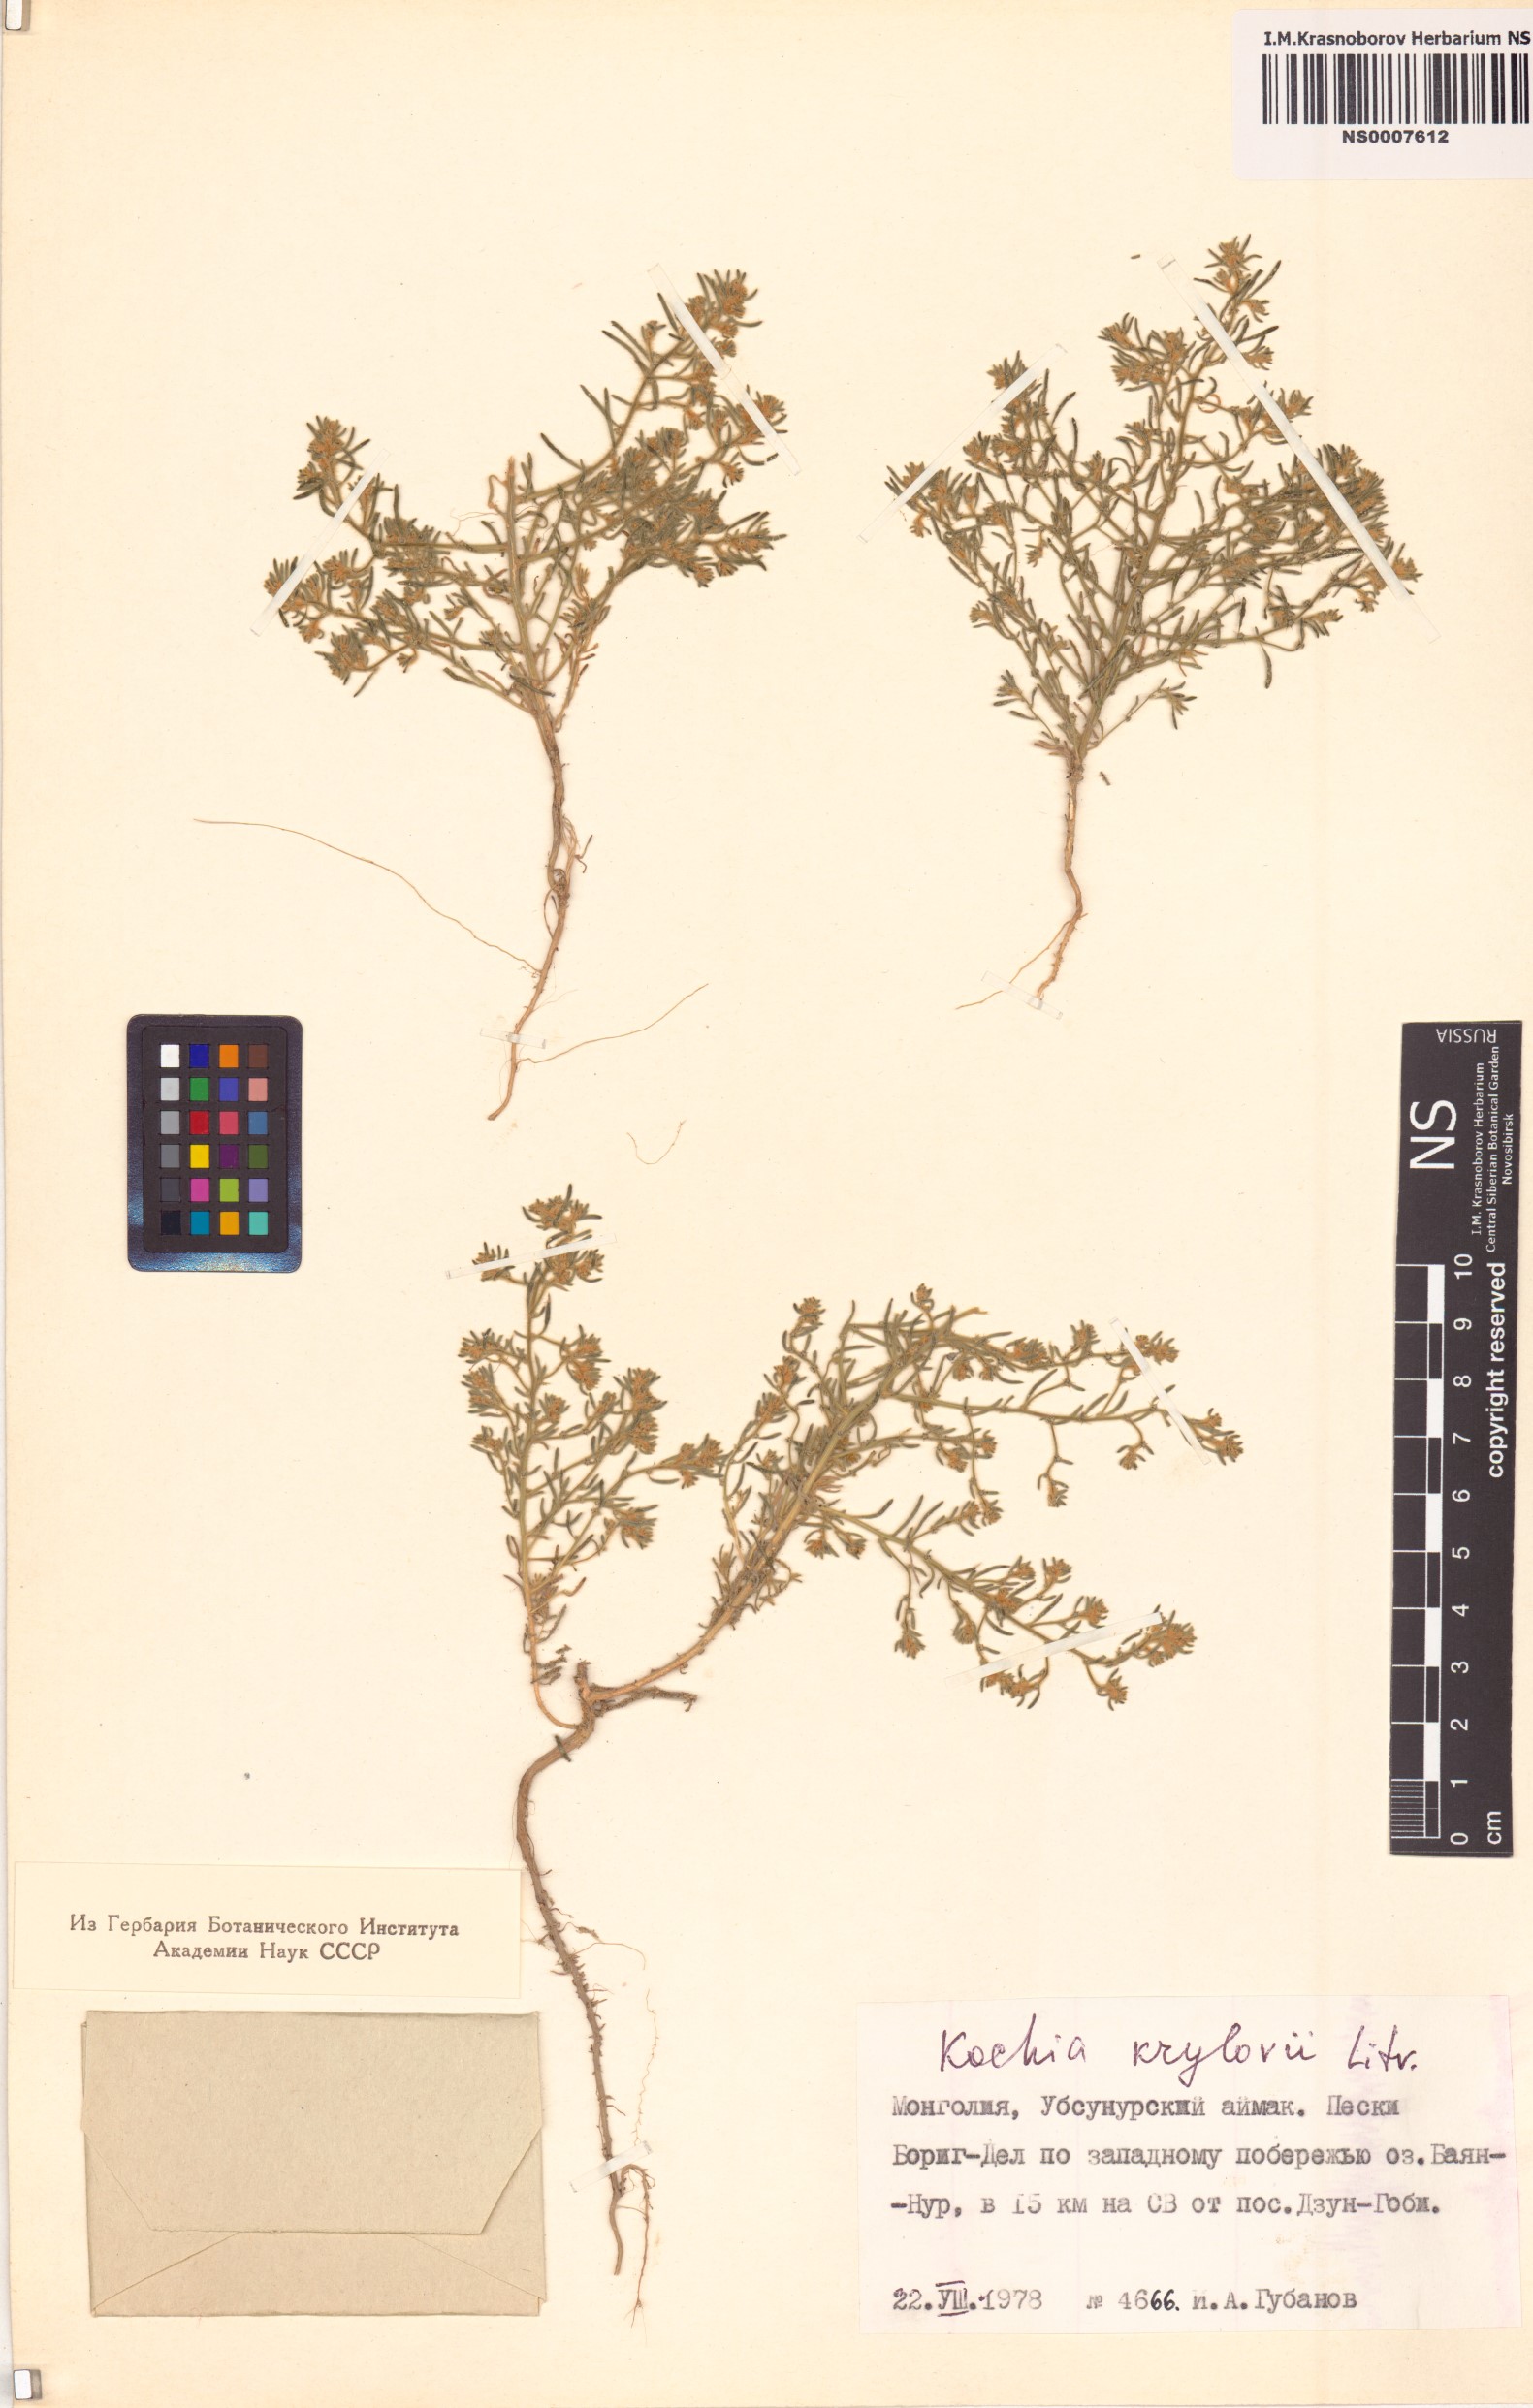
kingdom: Plantae
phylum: Tracheophyta
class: Magnoliopsida
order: Caryophyllales
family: Amaranthaceae
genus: Grubovia
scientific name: Grubovia krylowii
